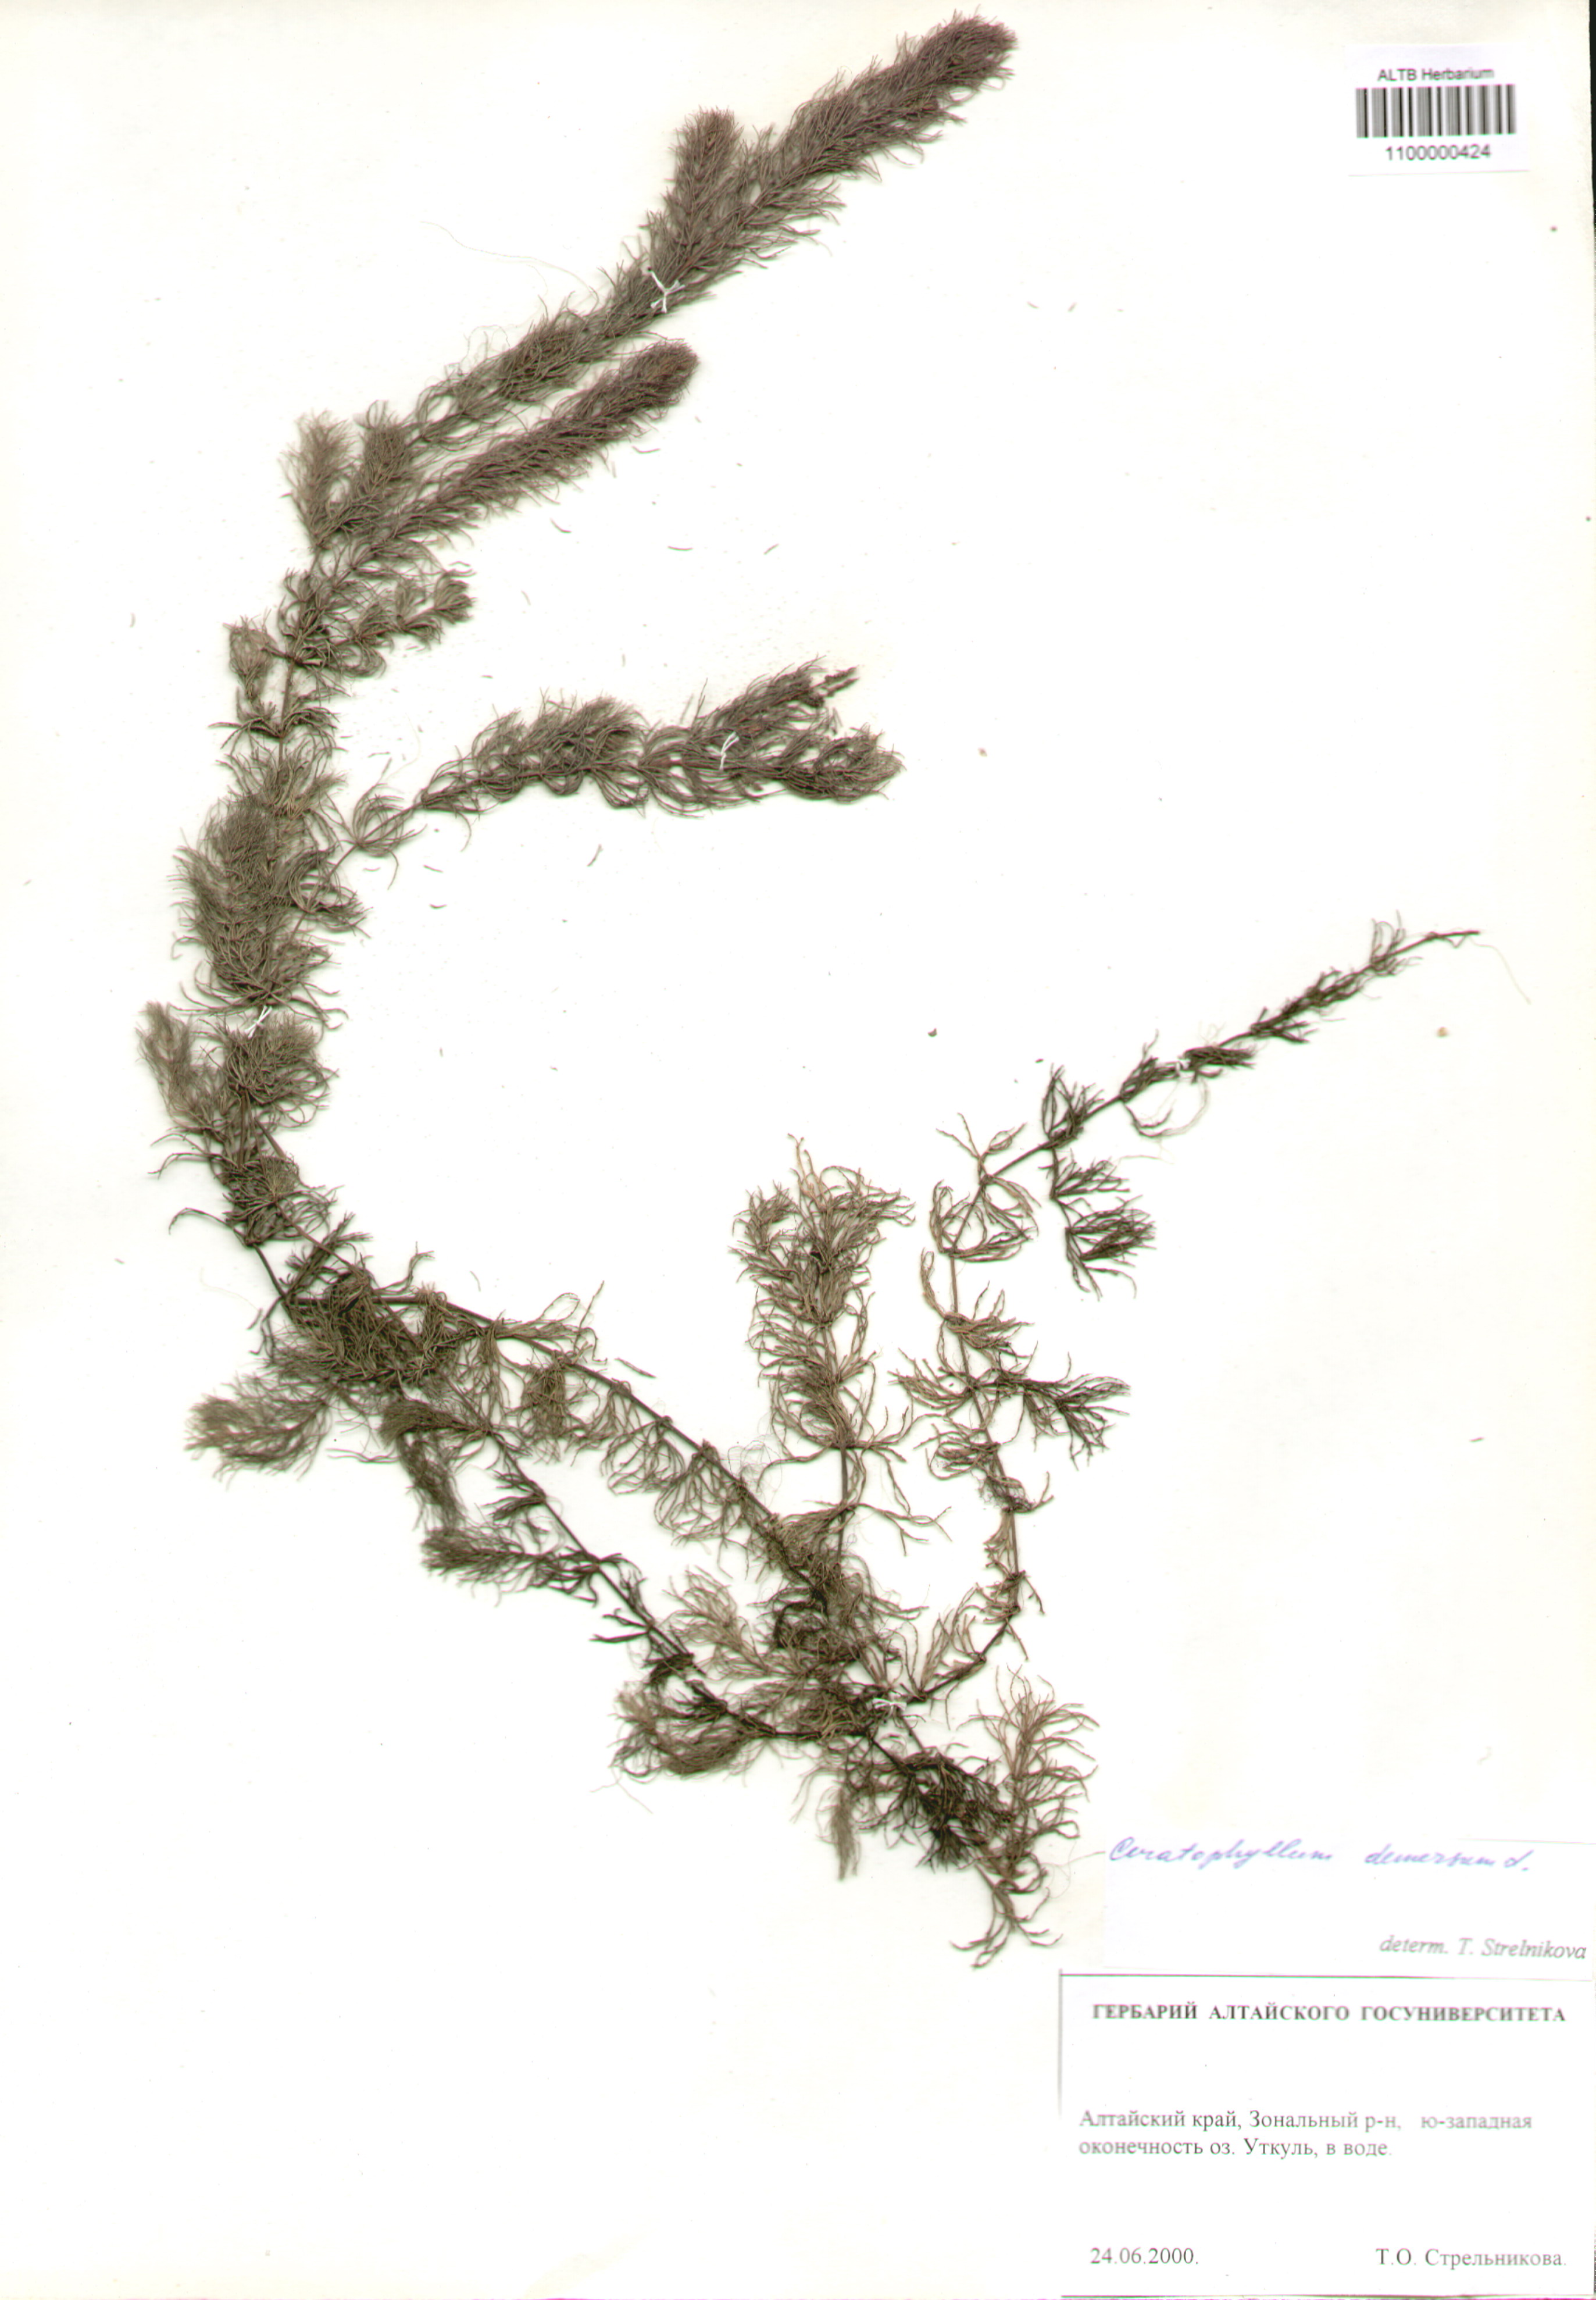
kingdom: Plantae
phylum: Tracheophyta
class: Magnoliopsida
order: Ceratophyllales
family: Ceratophyllaceae
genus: Ceratophyllum
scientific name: Ceratophyllum demersum
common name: Rigid hornwort
